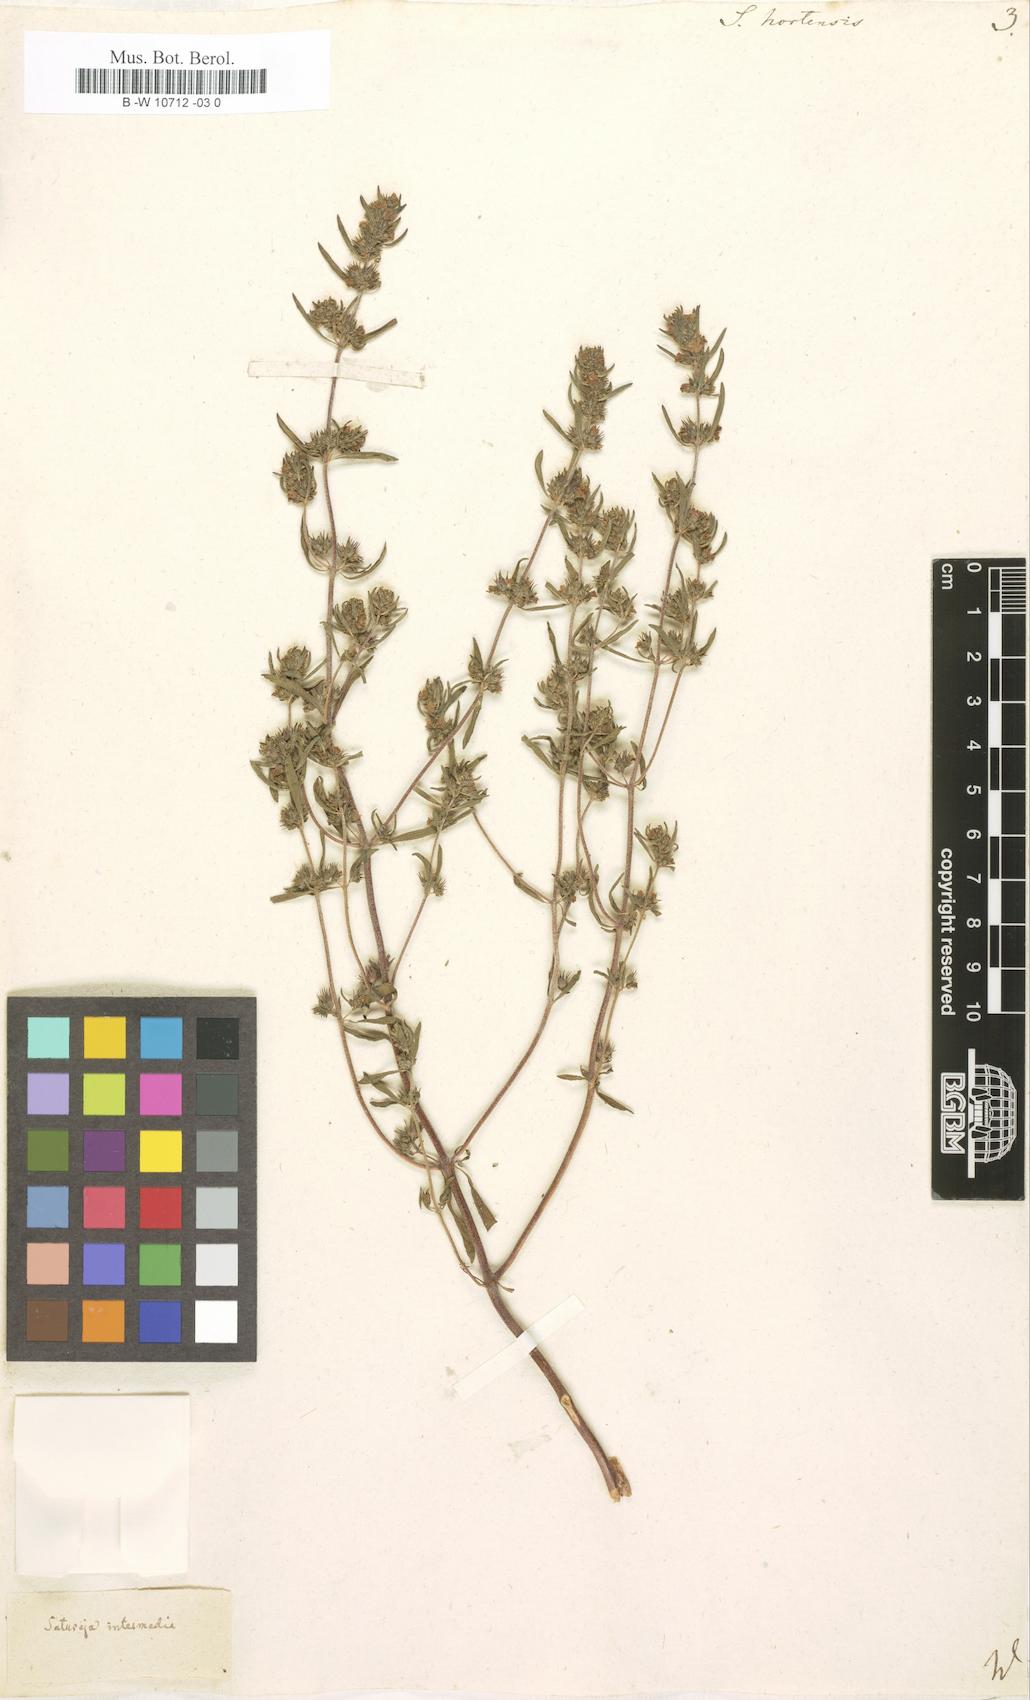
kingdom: Plantae
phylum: Tracheophyta
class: Magnoliopsida
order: Lamiales
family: Lamiaceae
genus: Satureja
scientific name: Satureja hortensis
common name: Summer savory
